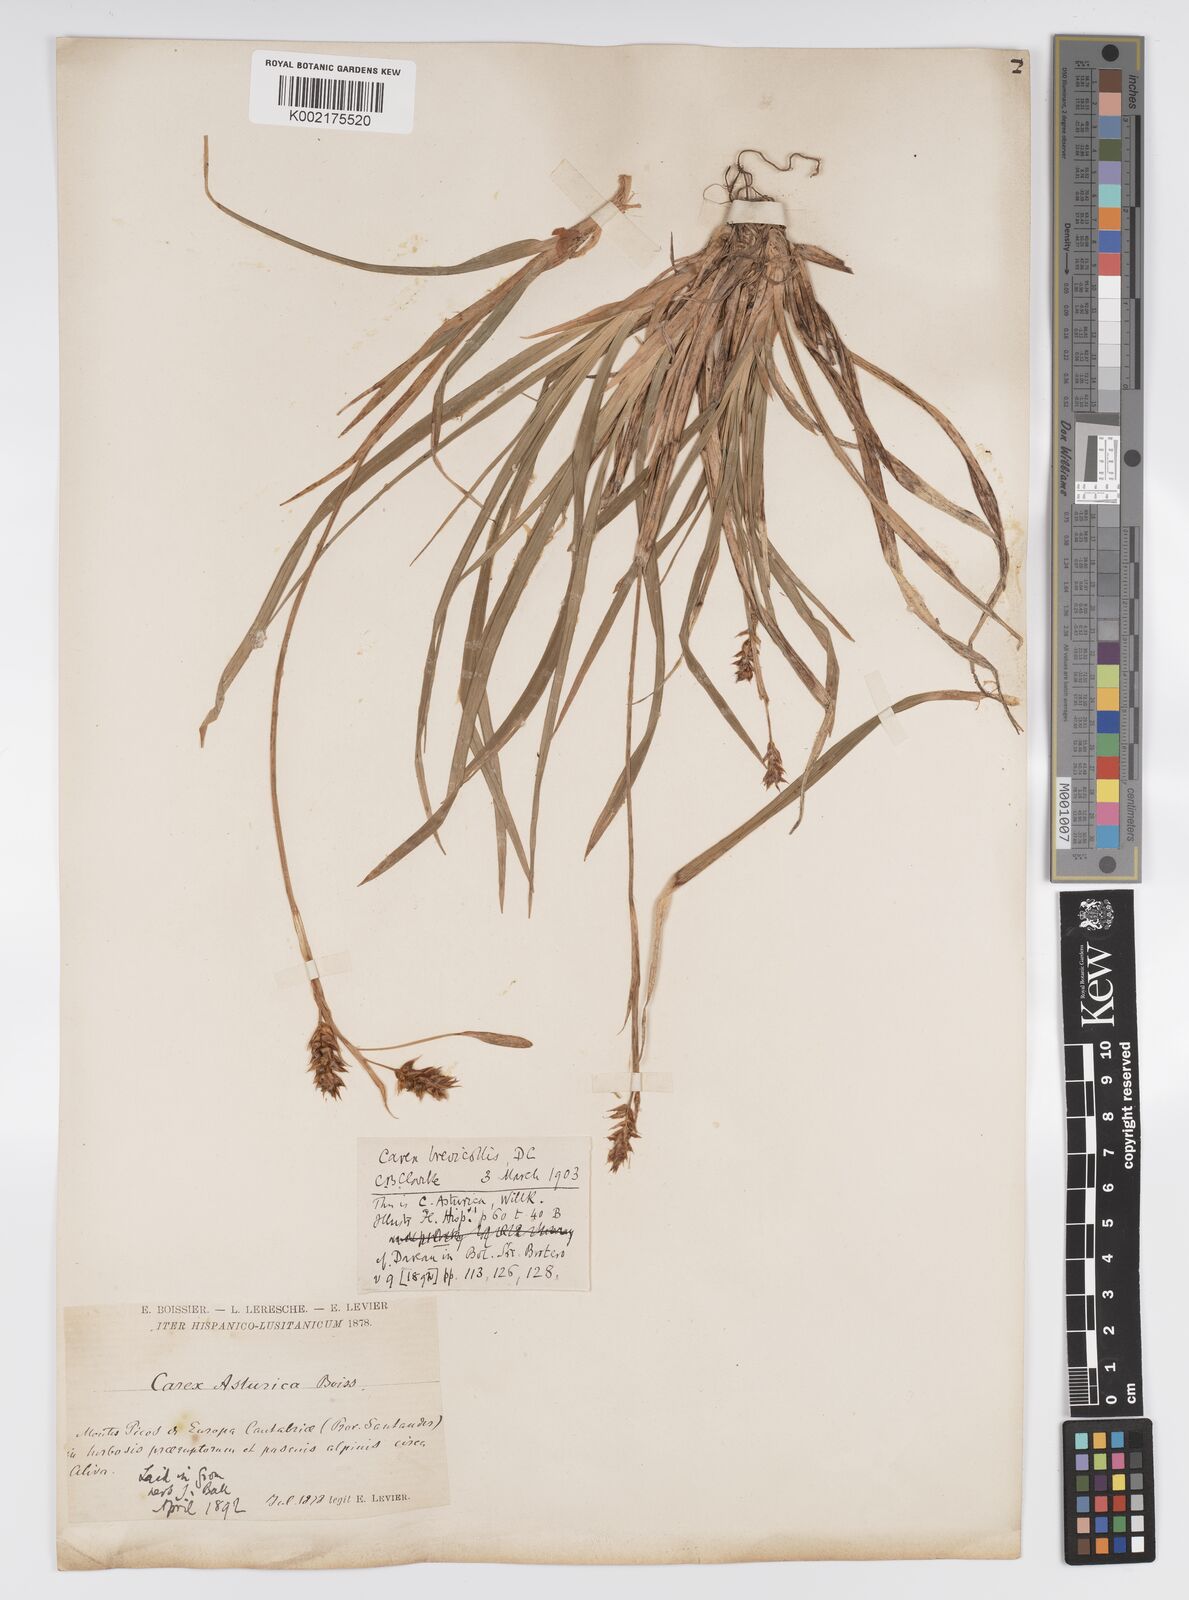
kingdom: Plantae
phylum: Tracheophyta
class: Liliopsida
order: Poales
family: Cyperaceae
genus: Carex
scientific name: Carex brevicollis
